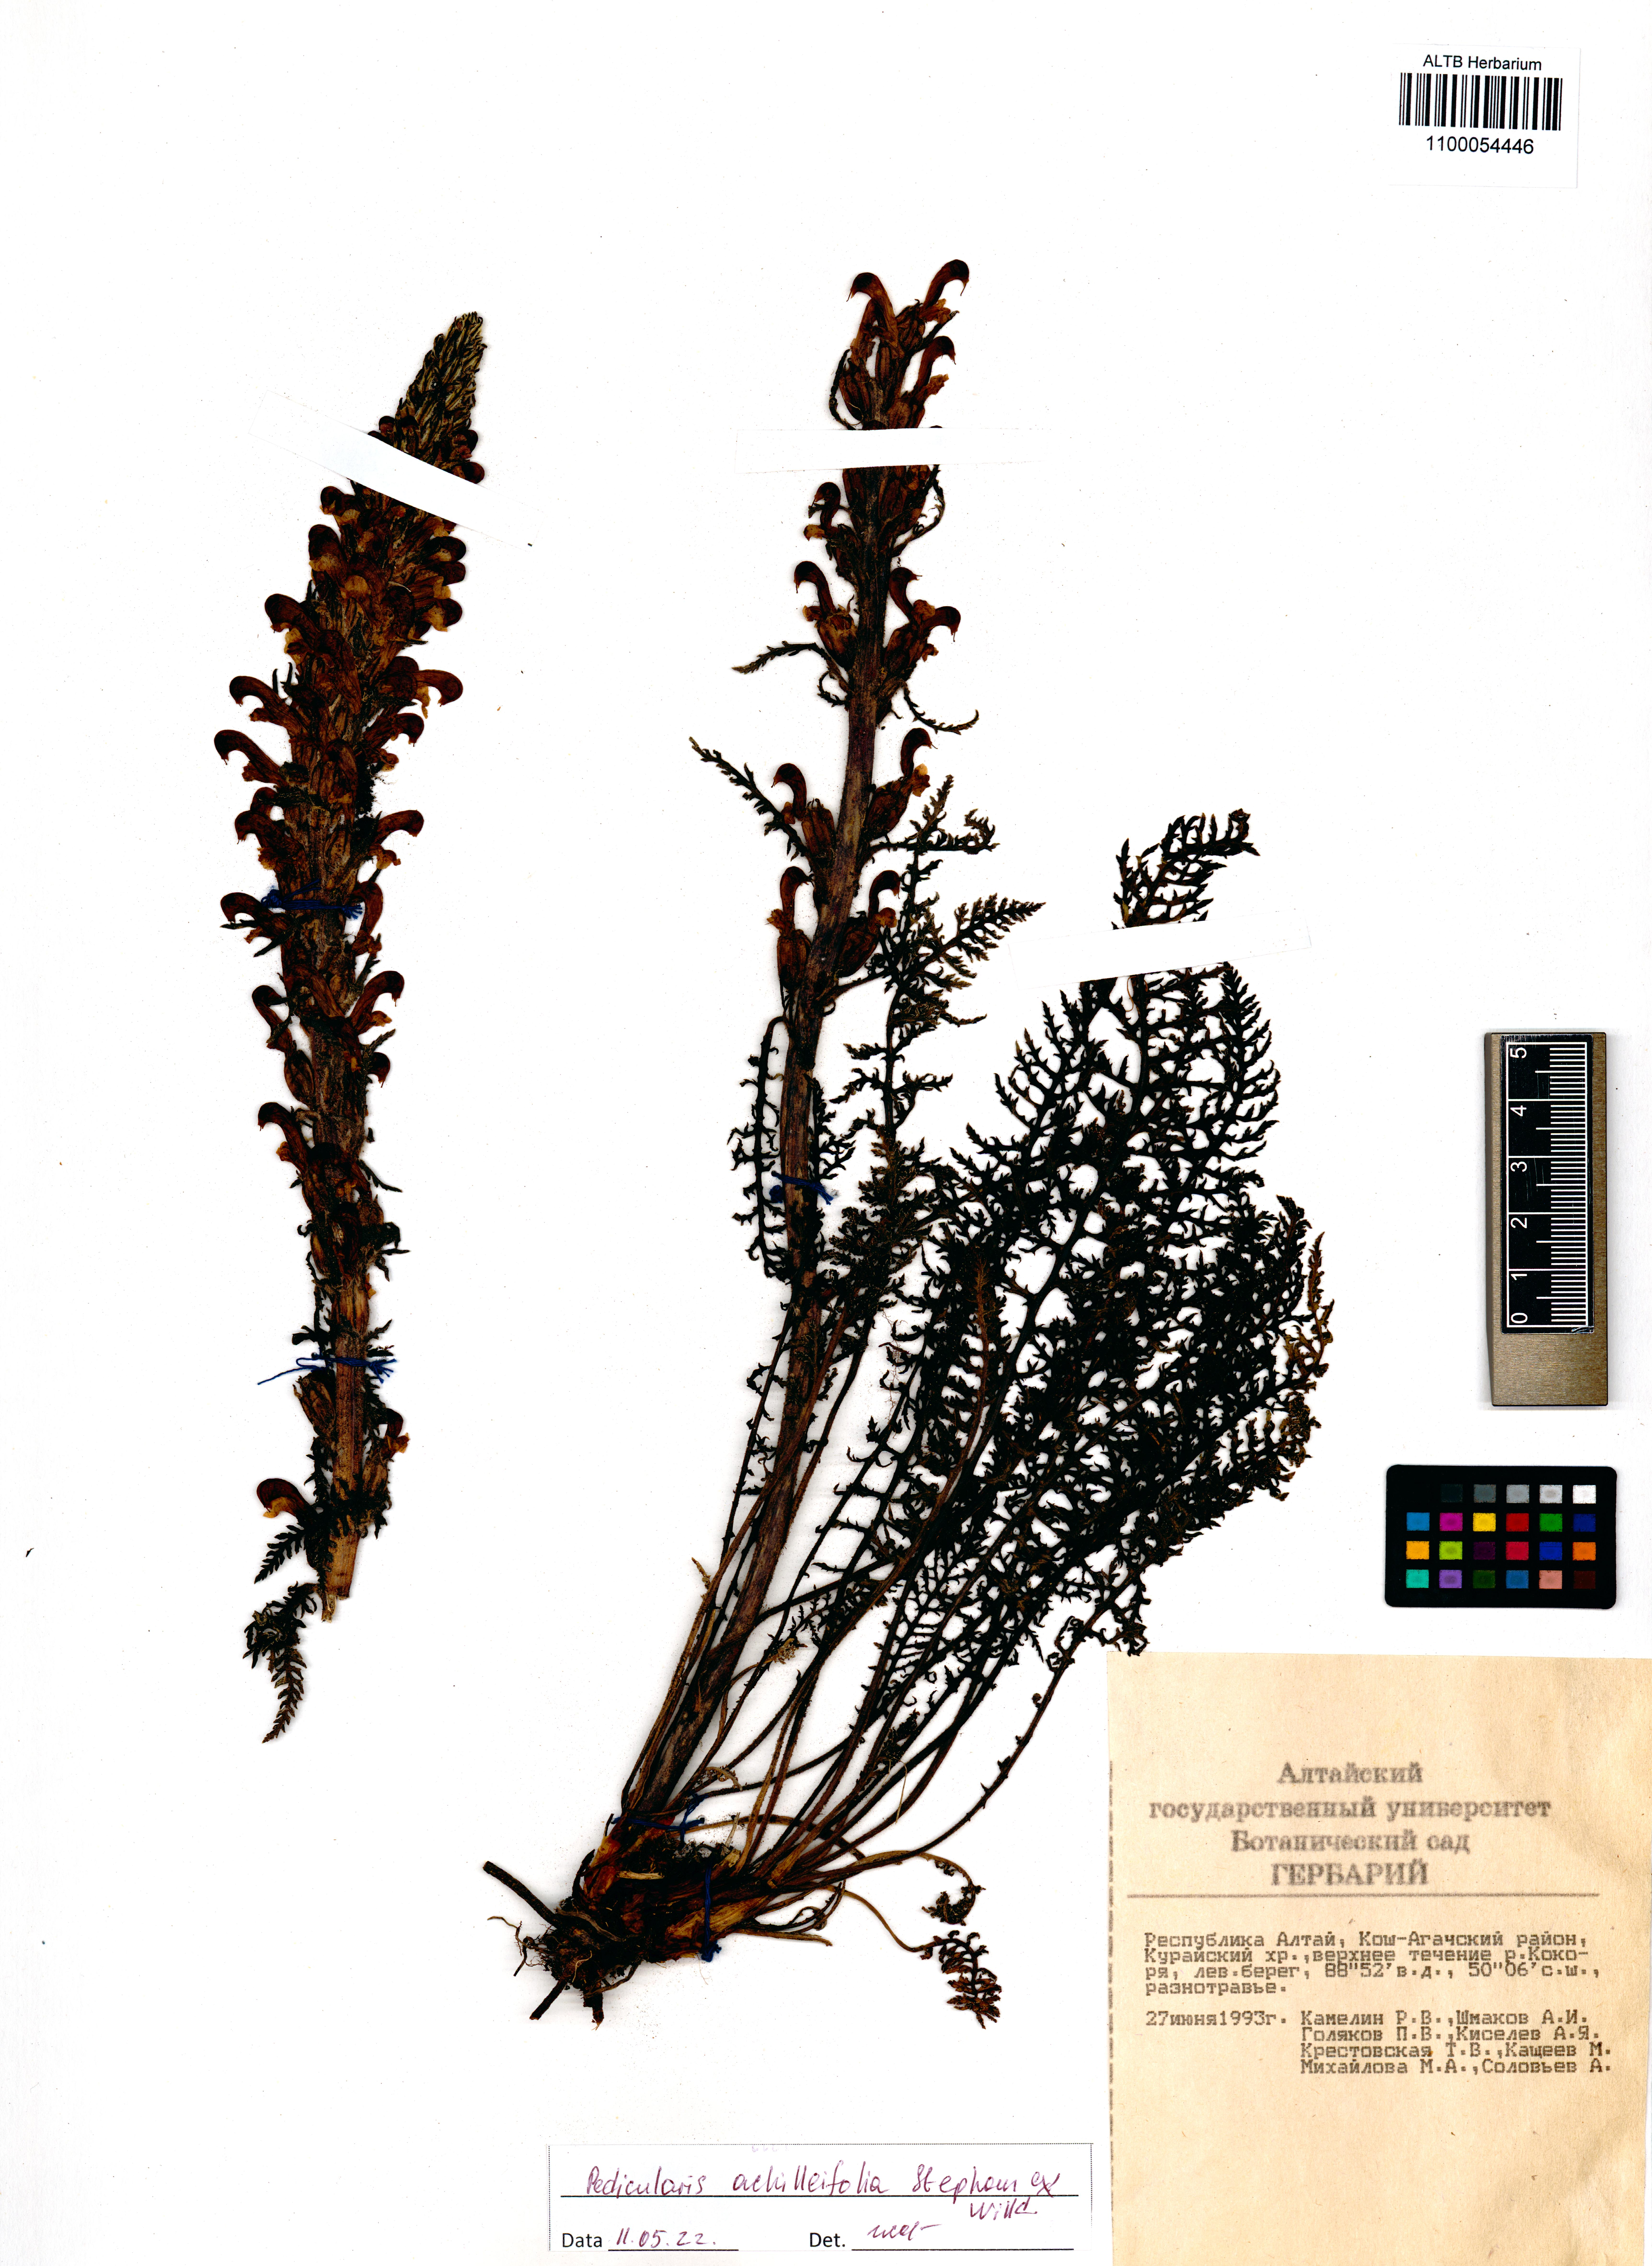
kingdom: Plantae
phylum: Tracheophyta
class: Magnoliopsida
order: Lamiales
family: Orobanchaceae
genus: Pedicularis
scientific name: Pedicularis achilleifolia
